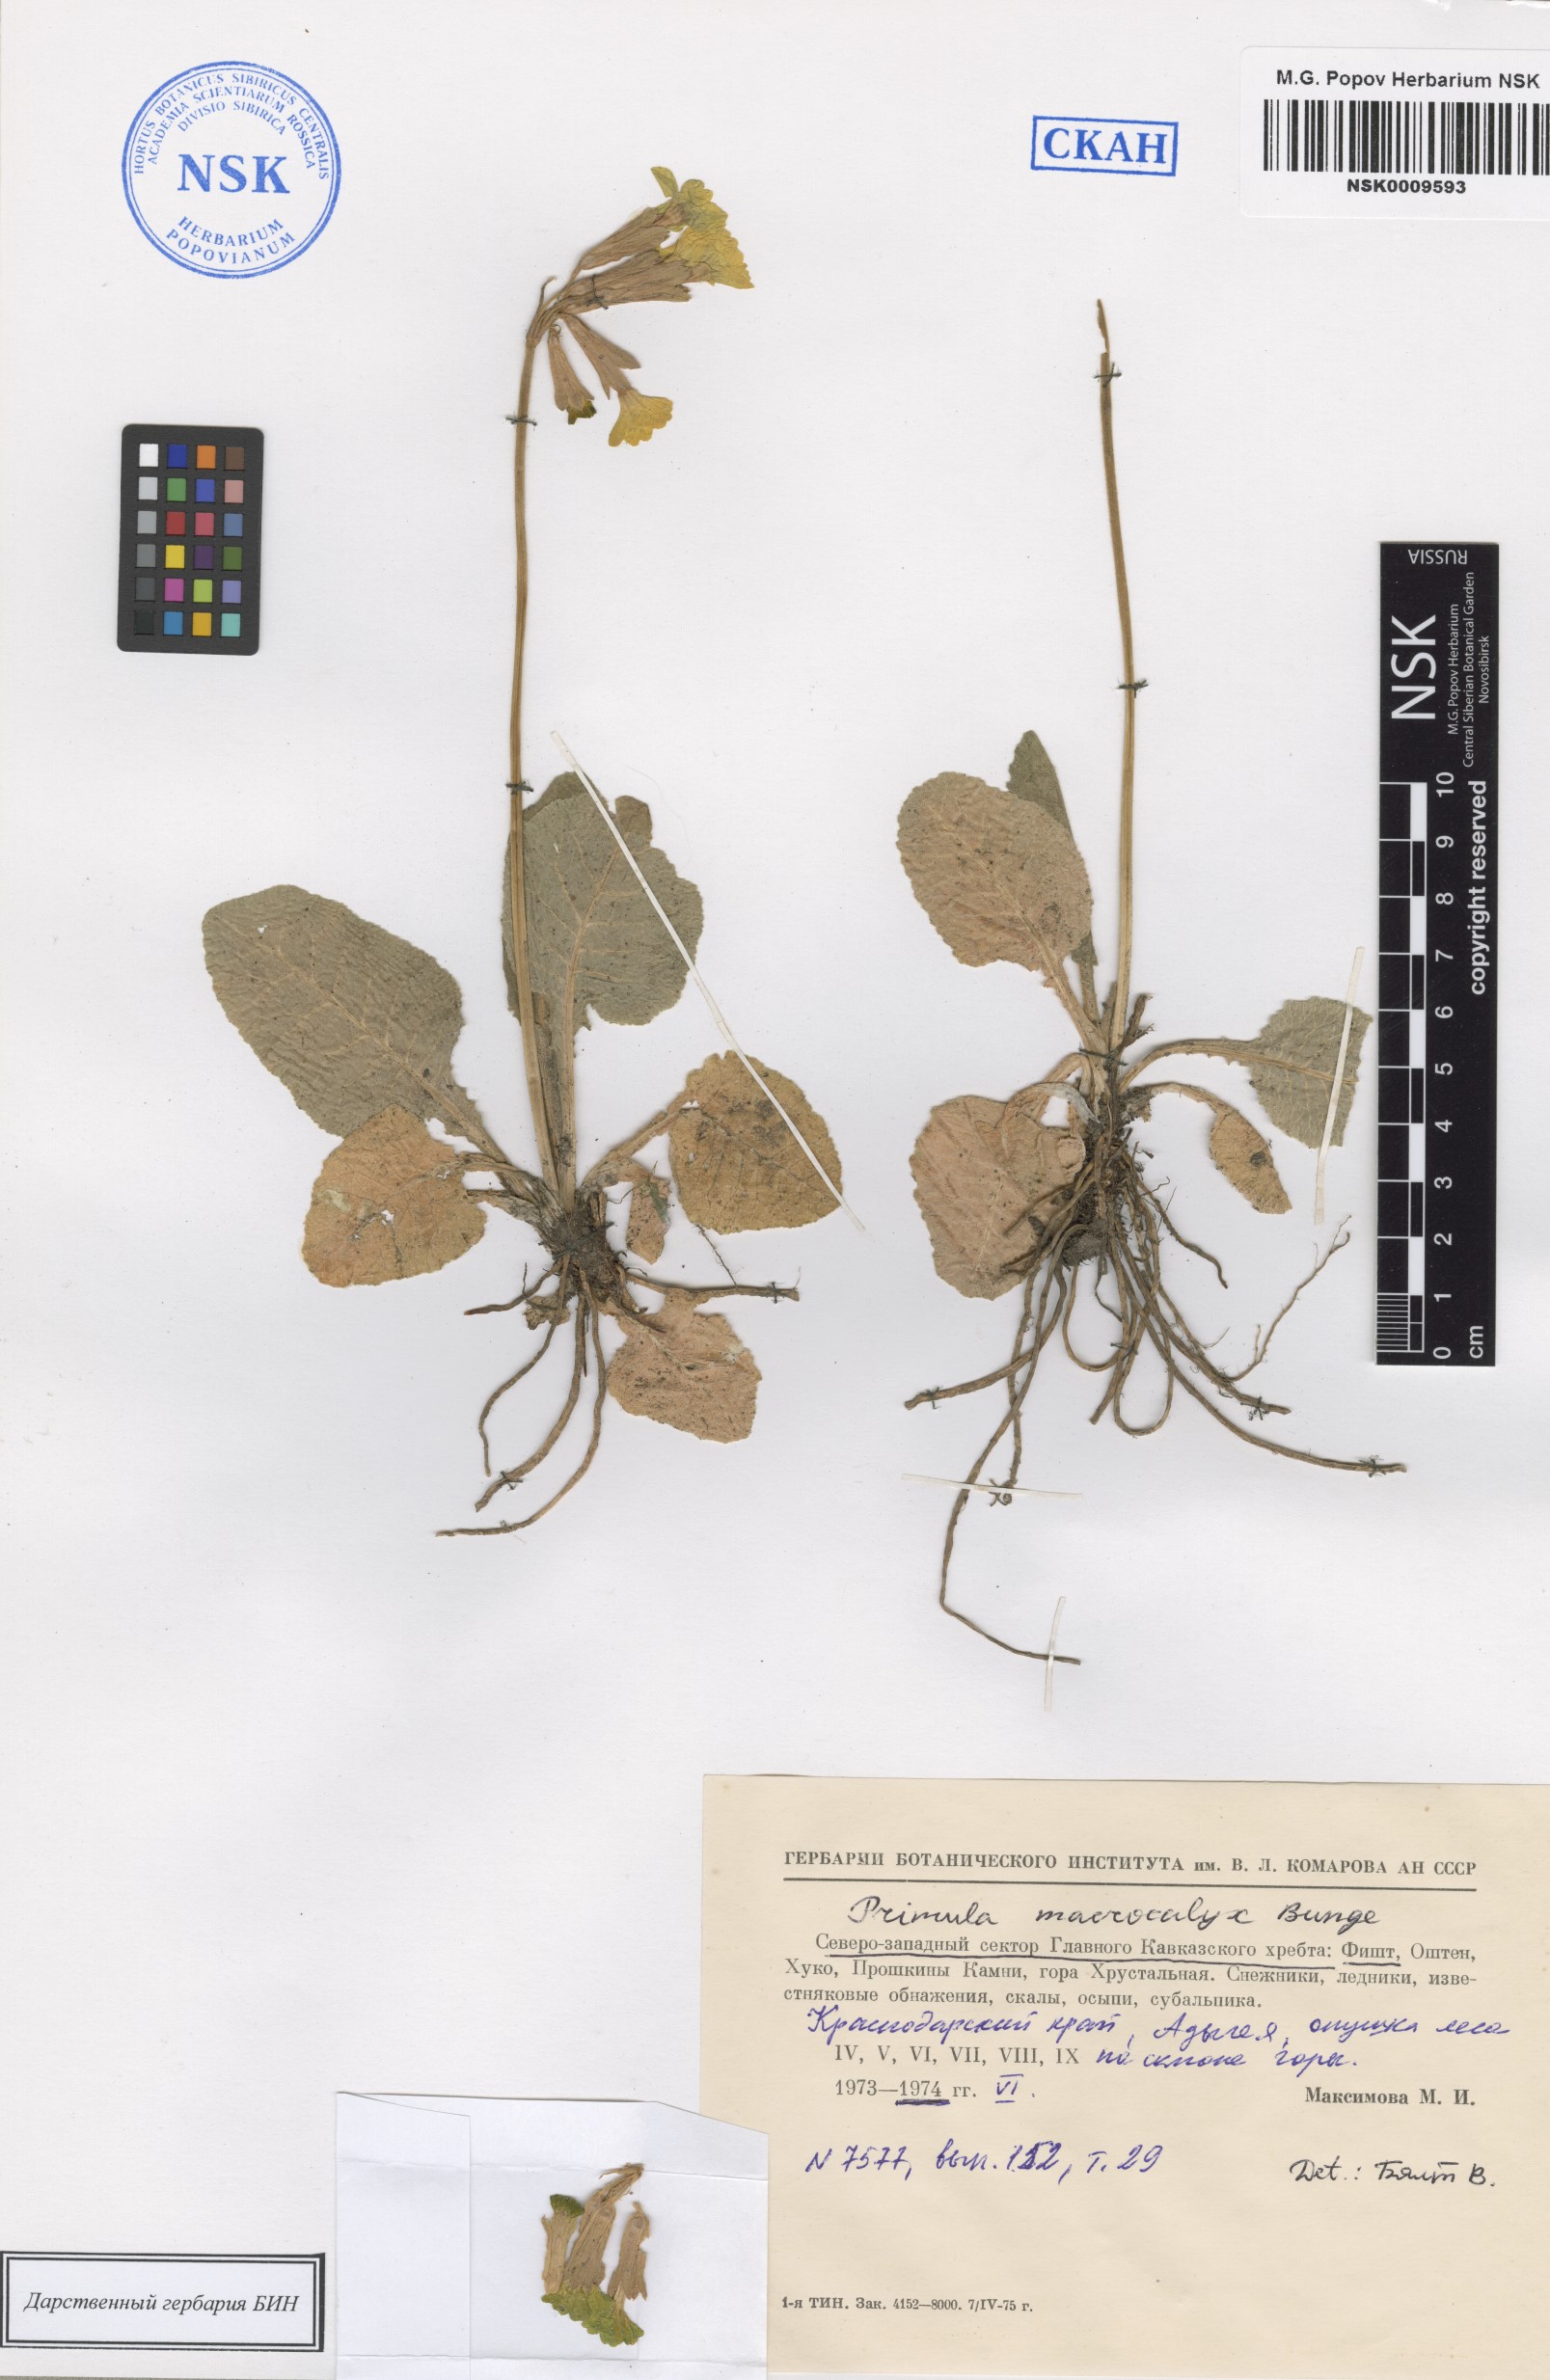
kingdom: Plantae
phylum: Tracheophyta
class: Magnoliopsida
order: Ericales
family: Primulaceae
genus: Primula
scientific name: Primula veris
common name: Cowslip
